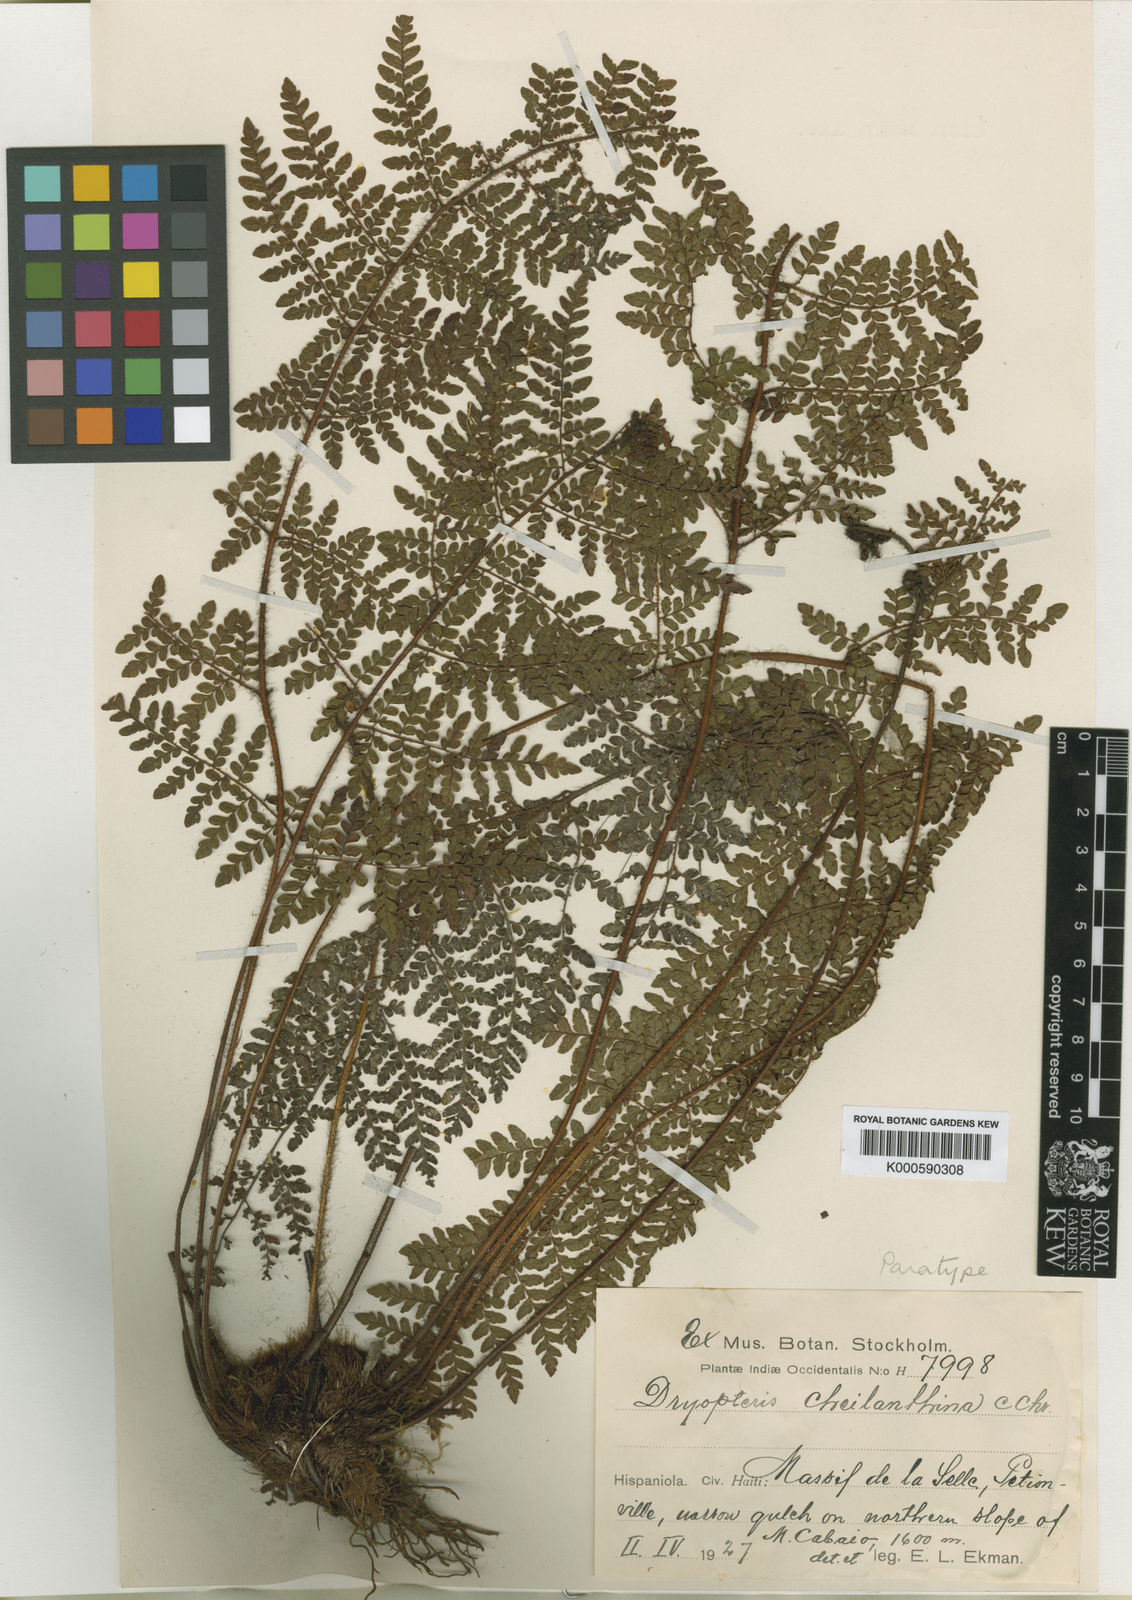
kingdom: Plantae
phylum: Tracheophyta
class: Polypodiopsida
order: Polypodiales
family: Dryopteridaceae
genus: Ctenitis
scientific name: Ctenitis cheilanthina
